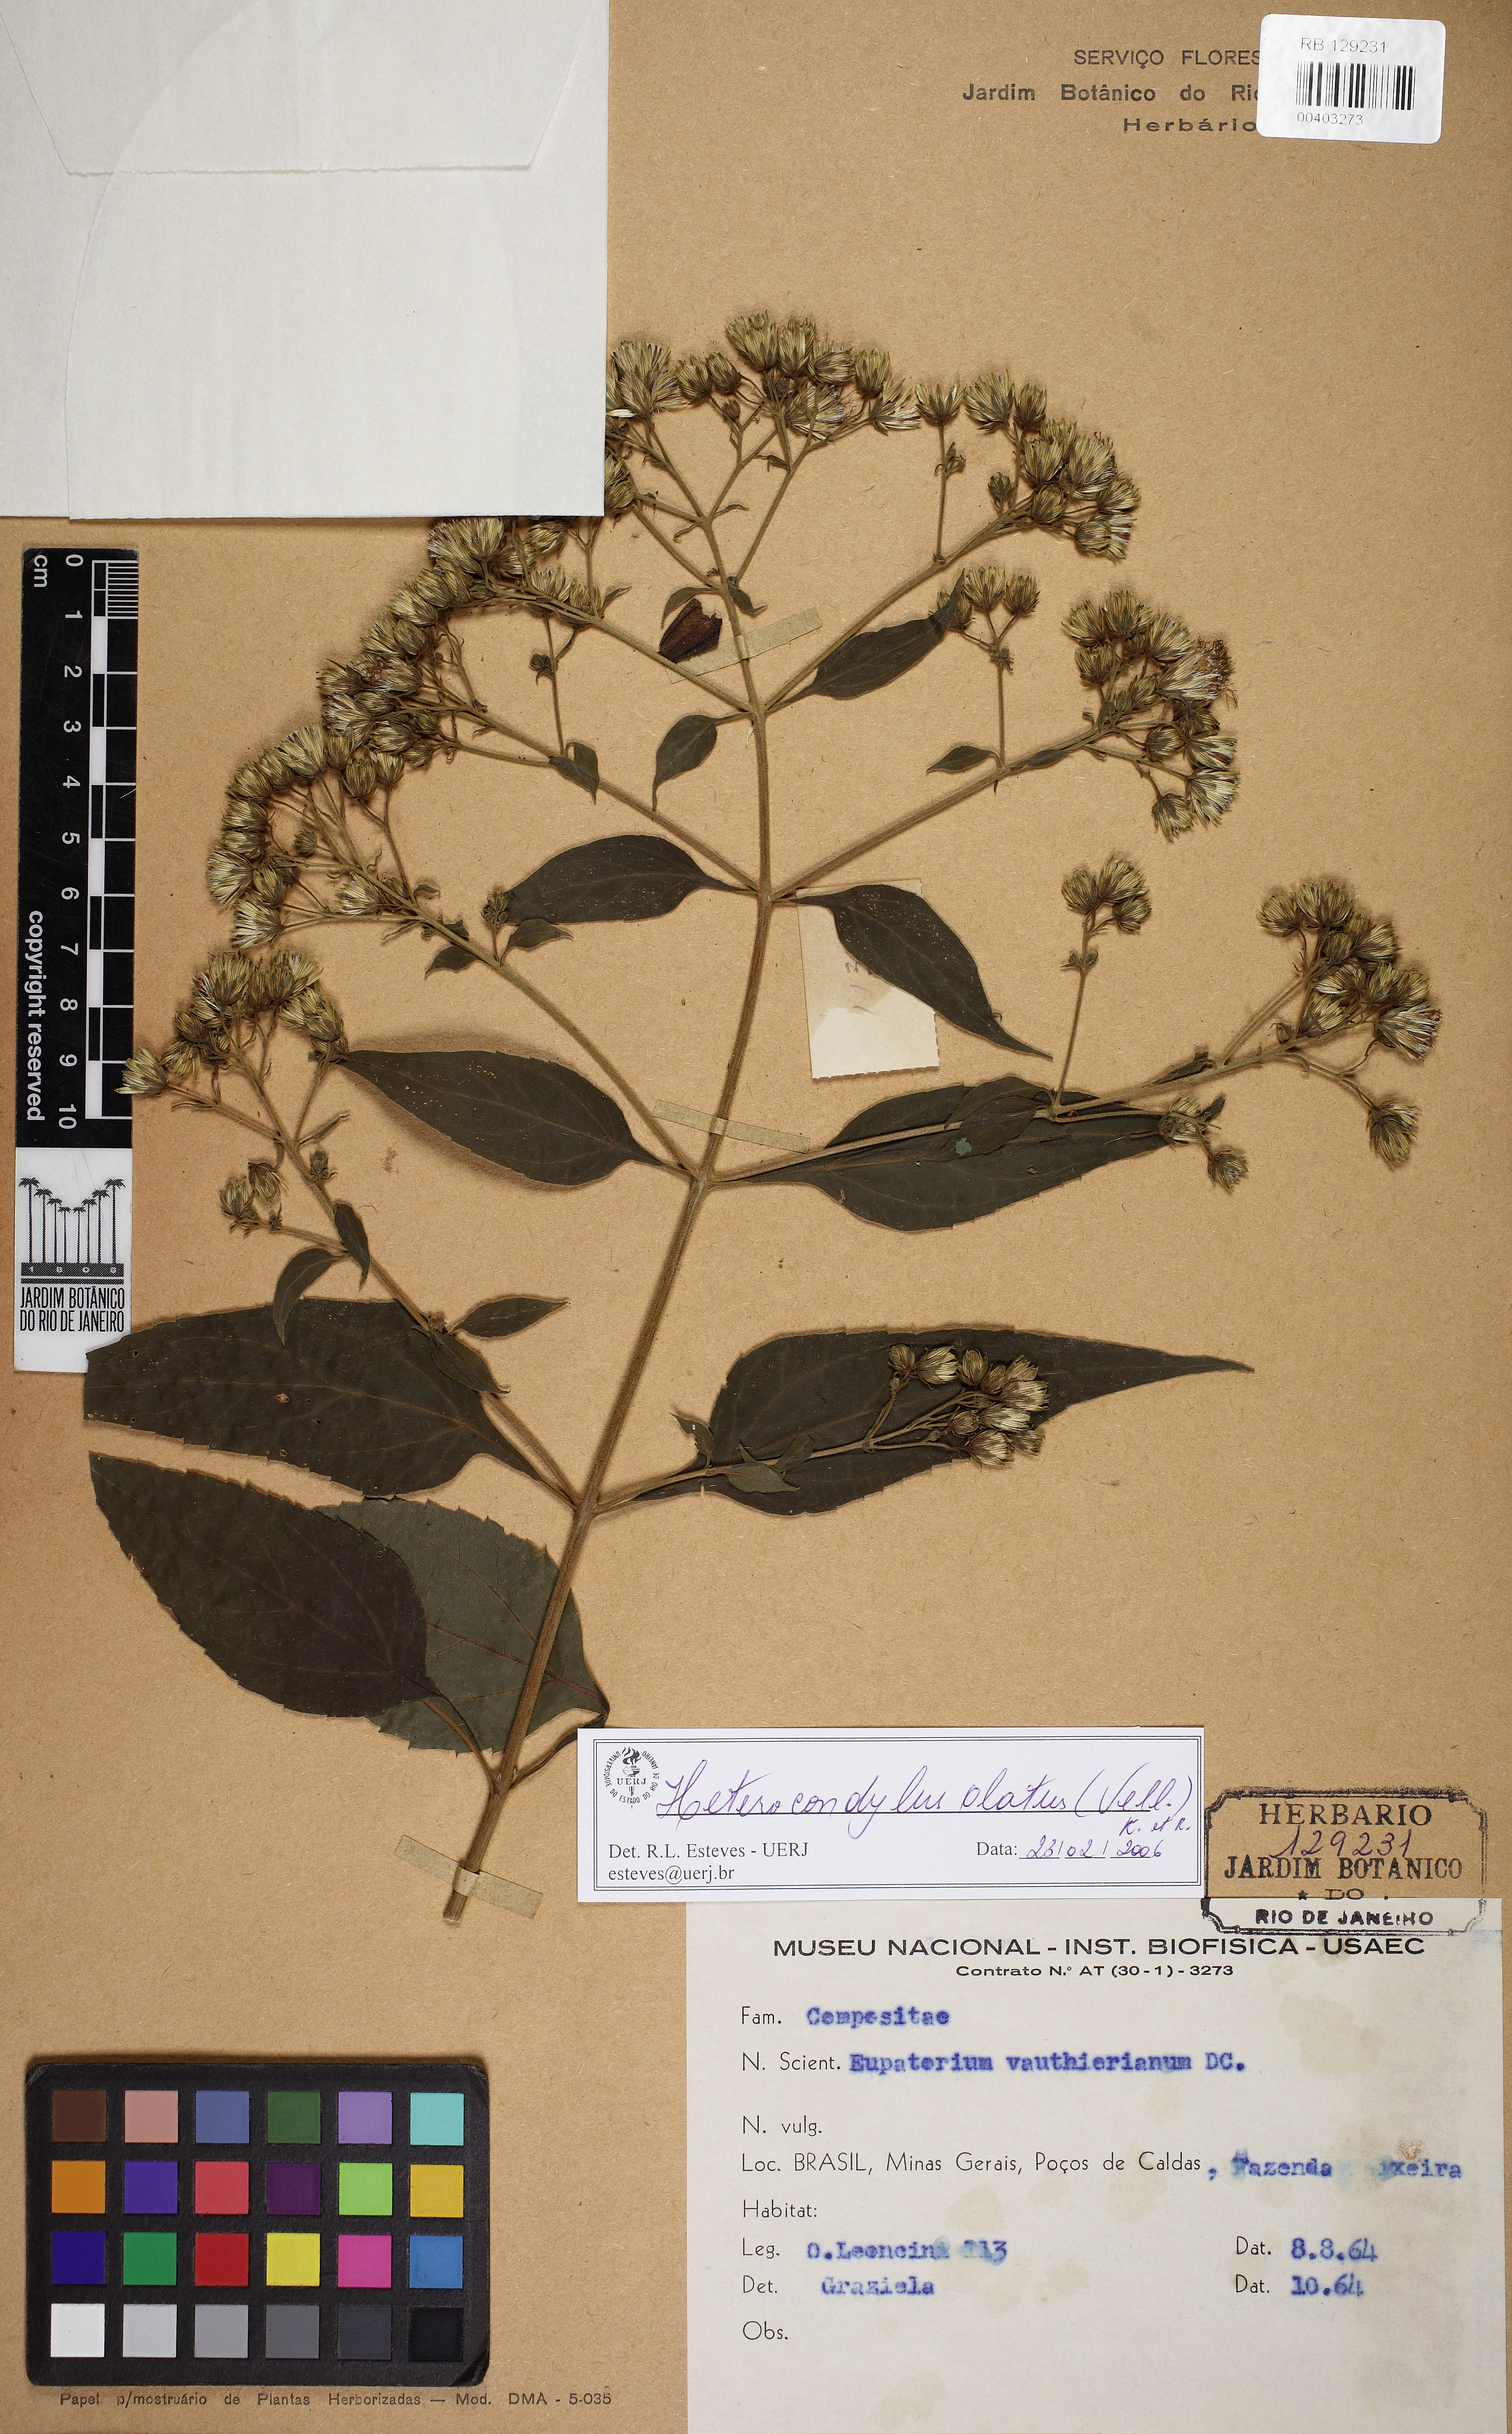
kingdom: Plantae
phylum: Tracheophyta
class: Magnoliopsida
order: Asterales
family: Asteraceae
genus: Heterocondylus
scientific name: Heterocondylus alatus
